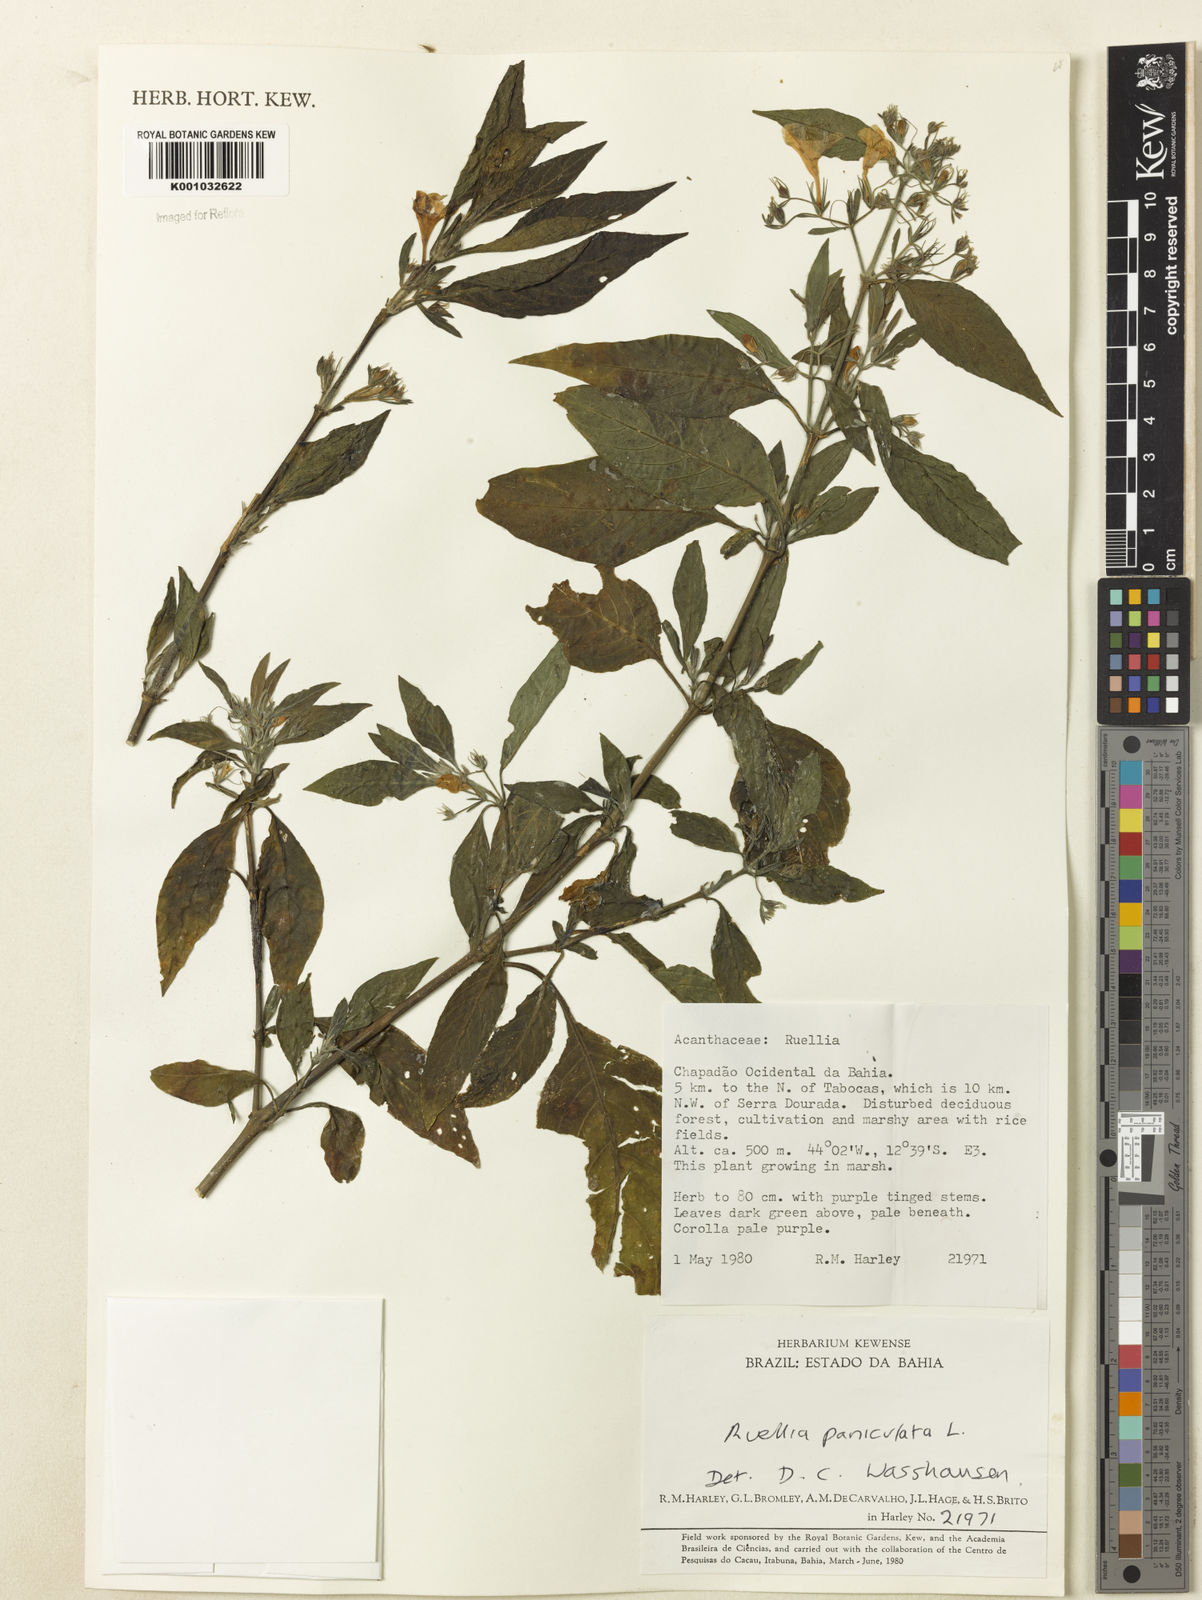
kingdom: Plantae
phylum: Tracheophyta
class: Magnoliopsida
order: Lamiales
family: Acanthaceae
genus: Ruellia
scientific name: Ruellia paniculata
